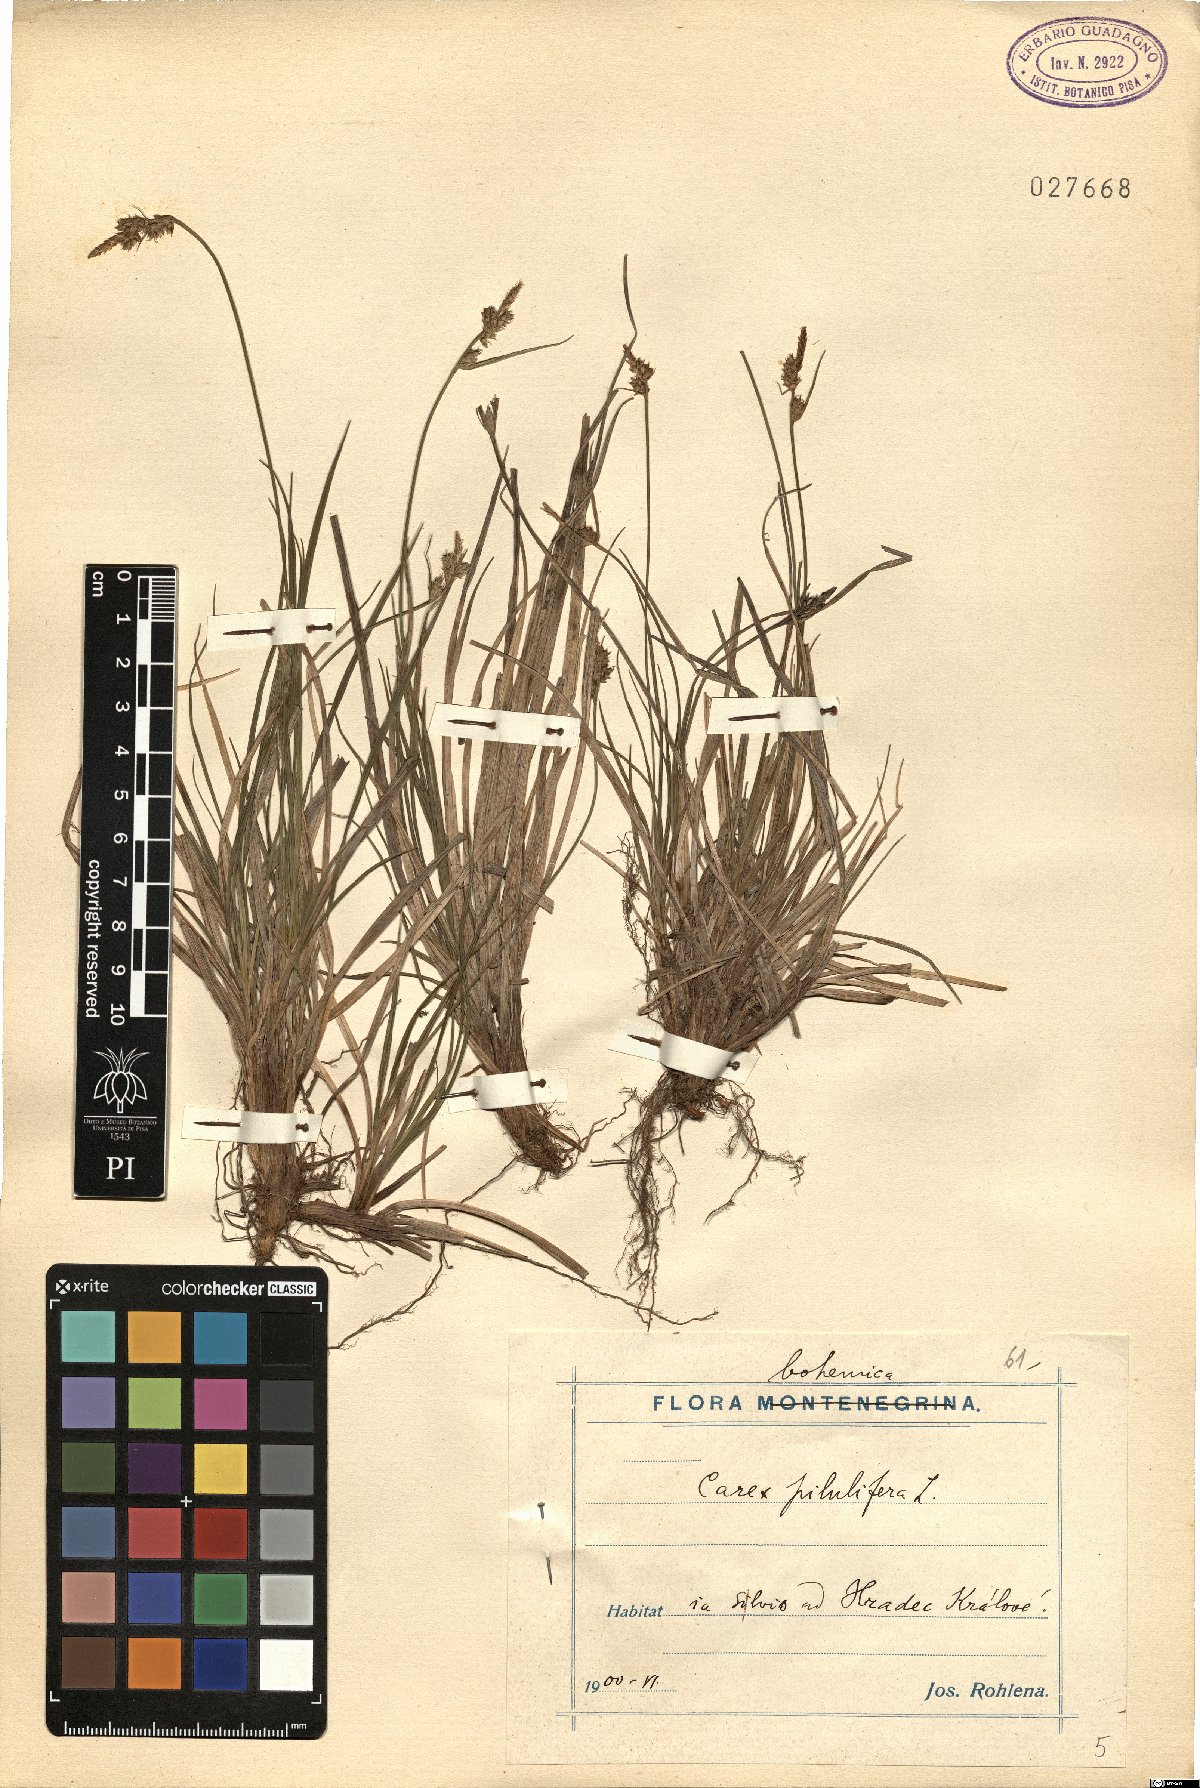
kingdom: Plantae
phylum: Tracheophyta
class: Liliopsida
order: Poales
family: Cyperaceae
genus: Carex
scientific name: Carex pilulifera
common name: Pill sedge
